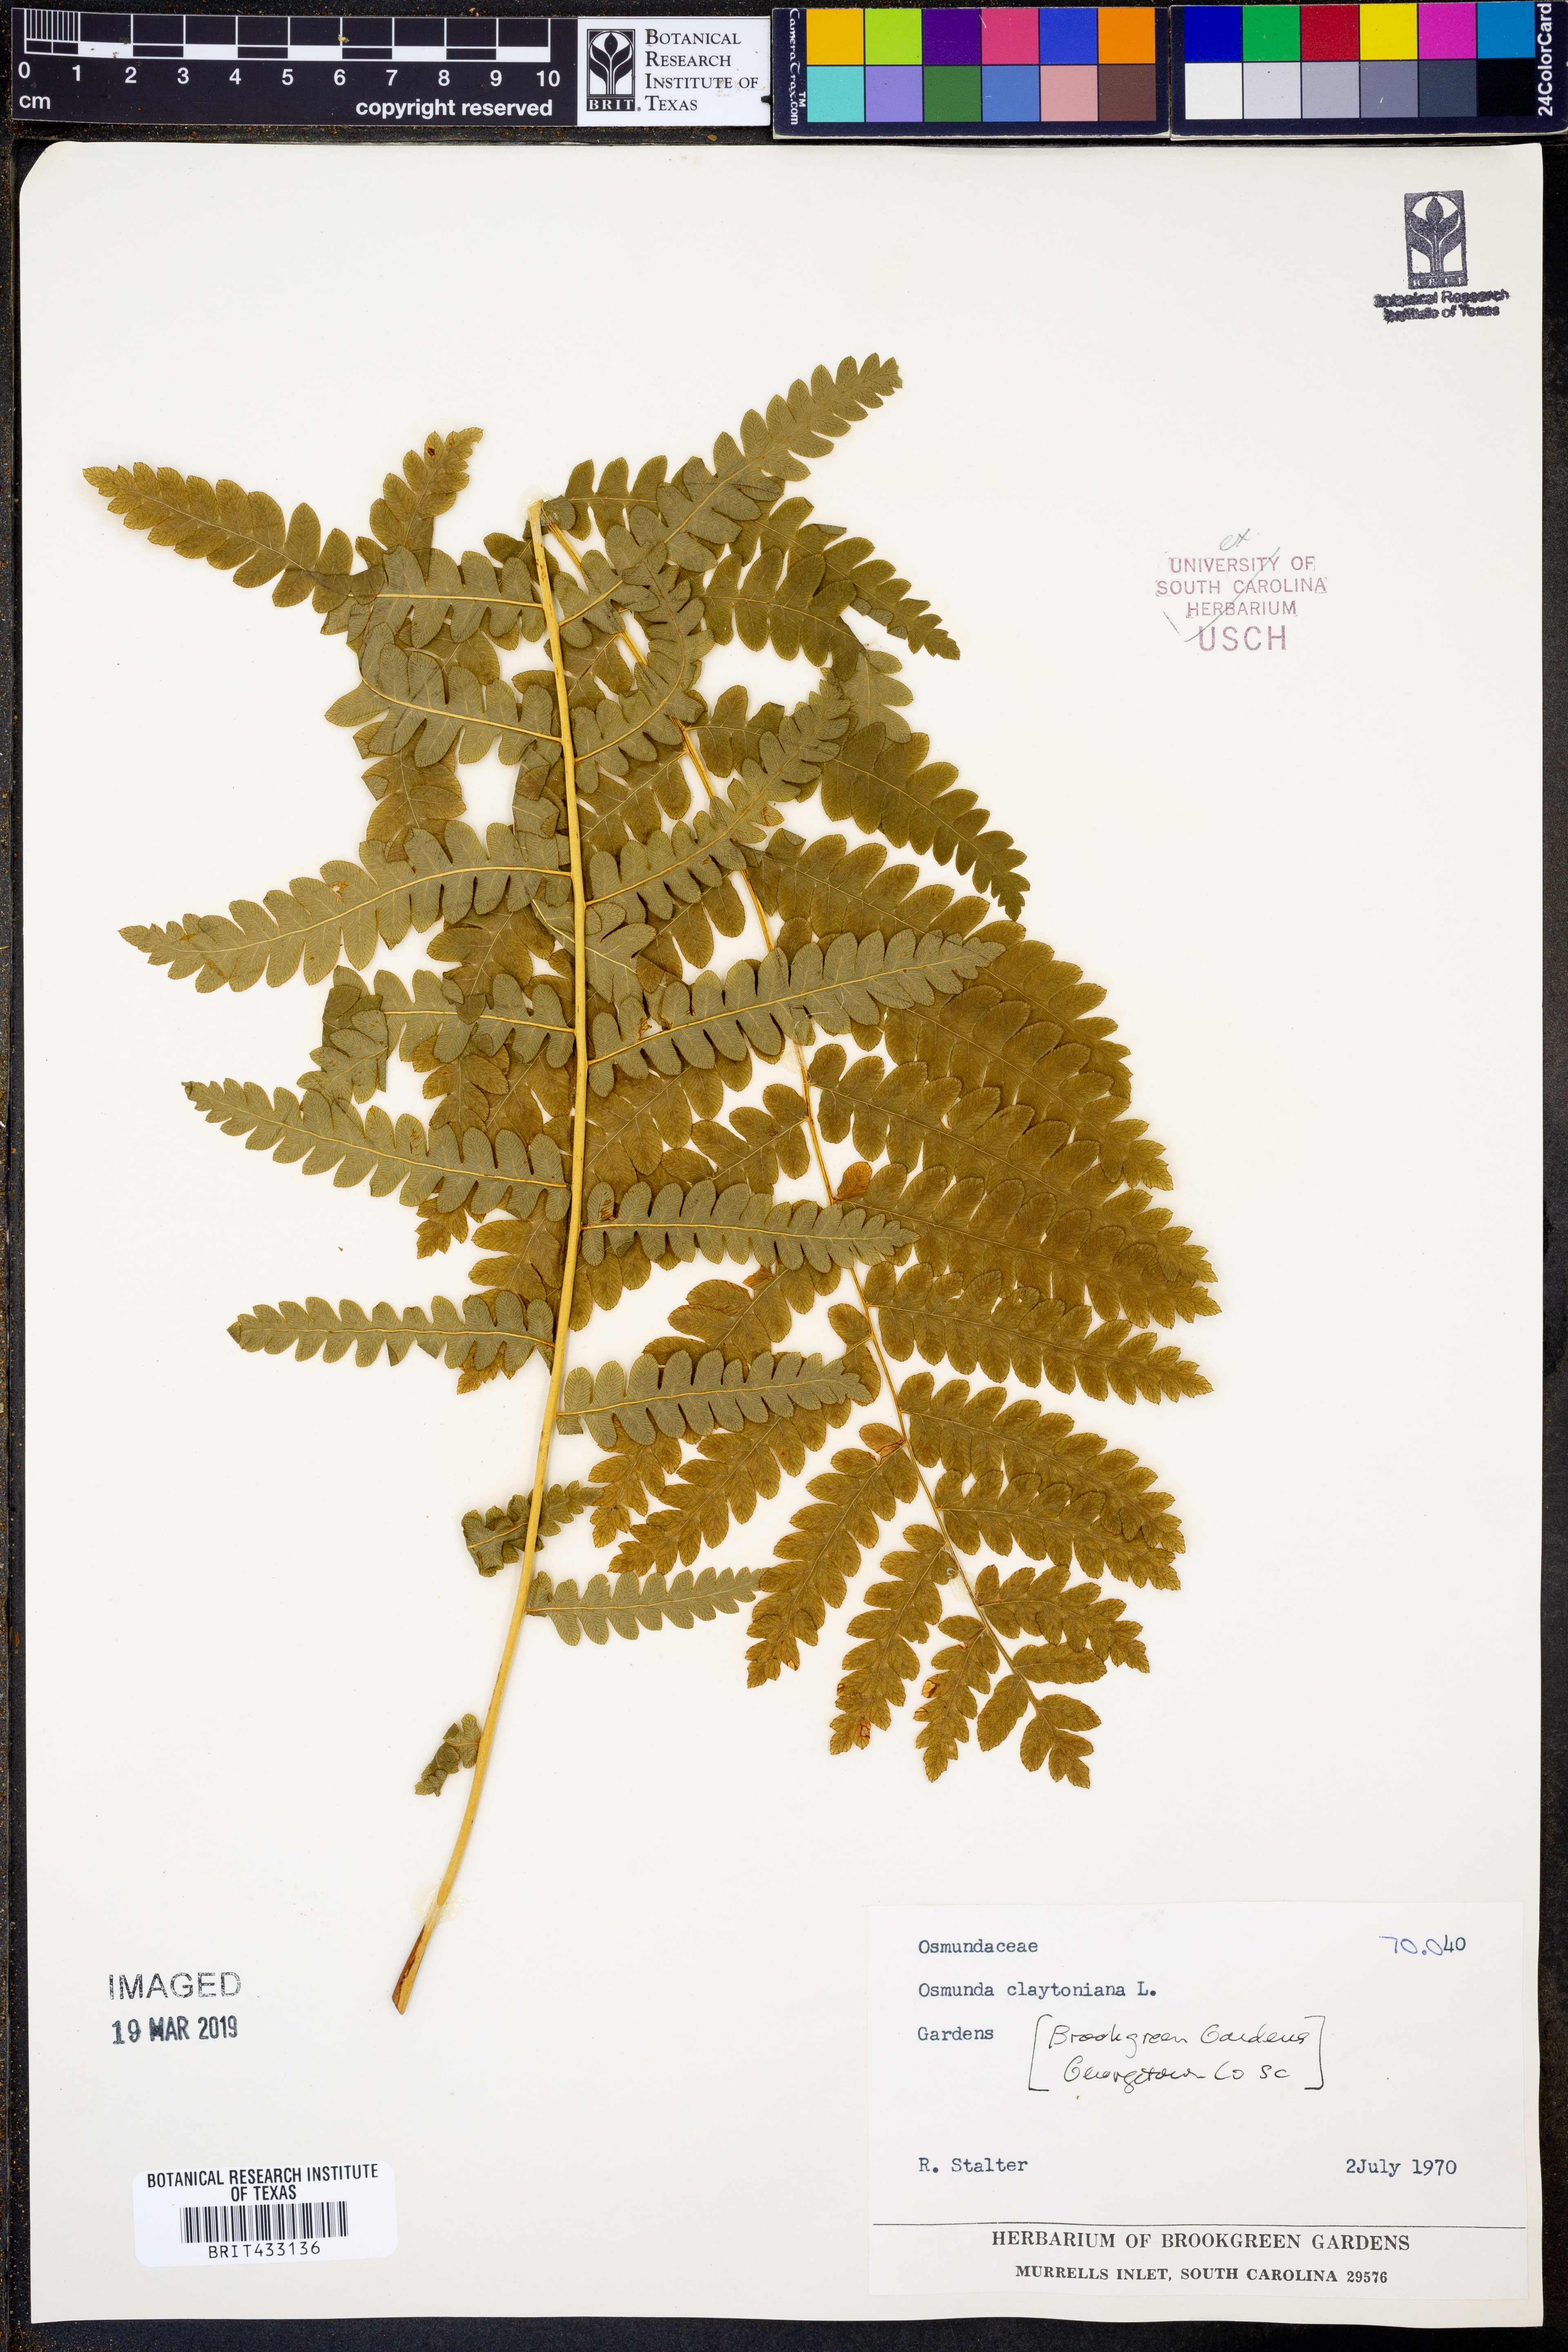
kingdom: Plantae
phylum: Tracheophyta
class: Polypodiopsida
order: Osmundales
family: Osmundaceae
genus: Claytosmunda
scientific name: Claytosmunda claytoniana
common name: Clayton's fern
